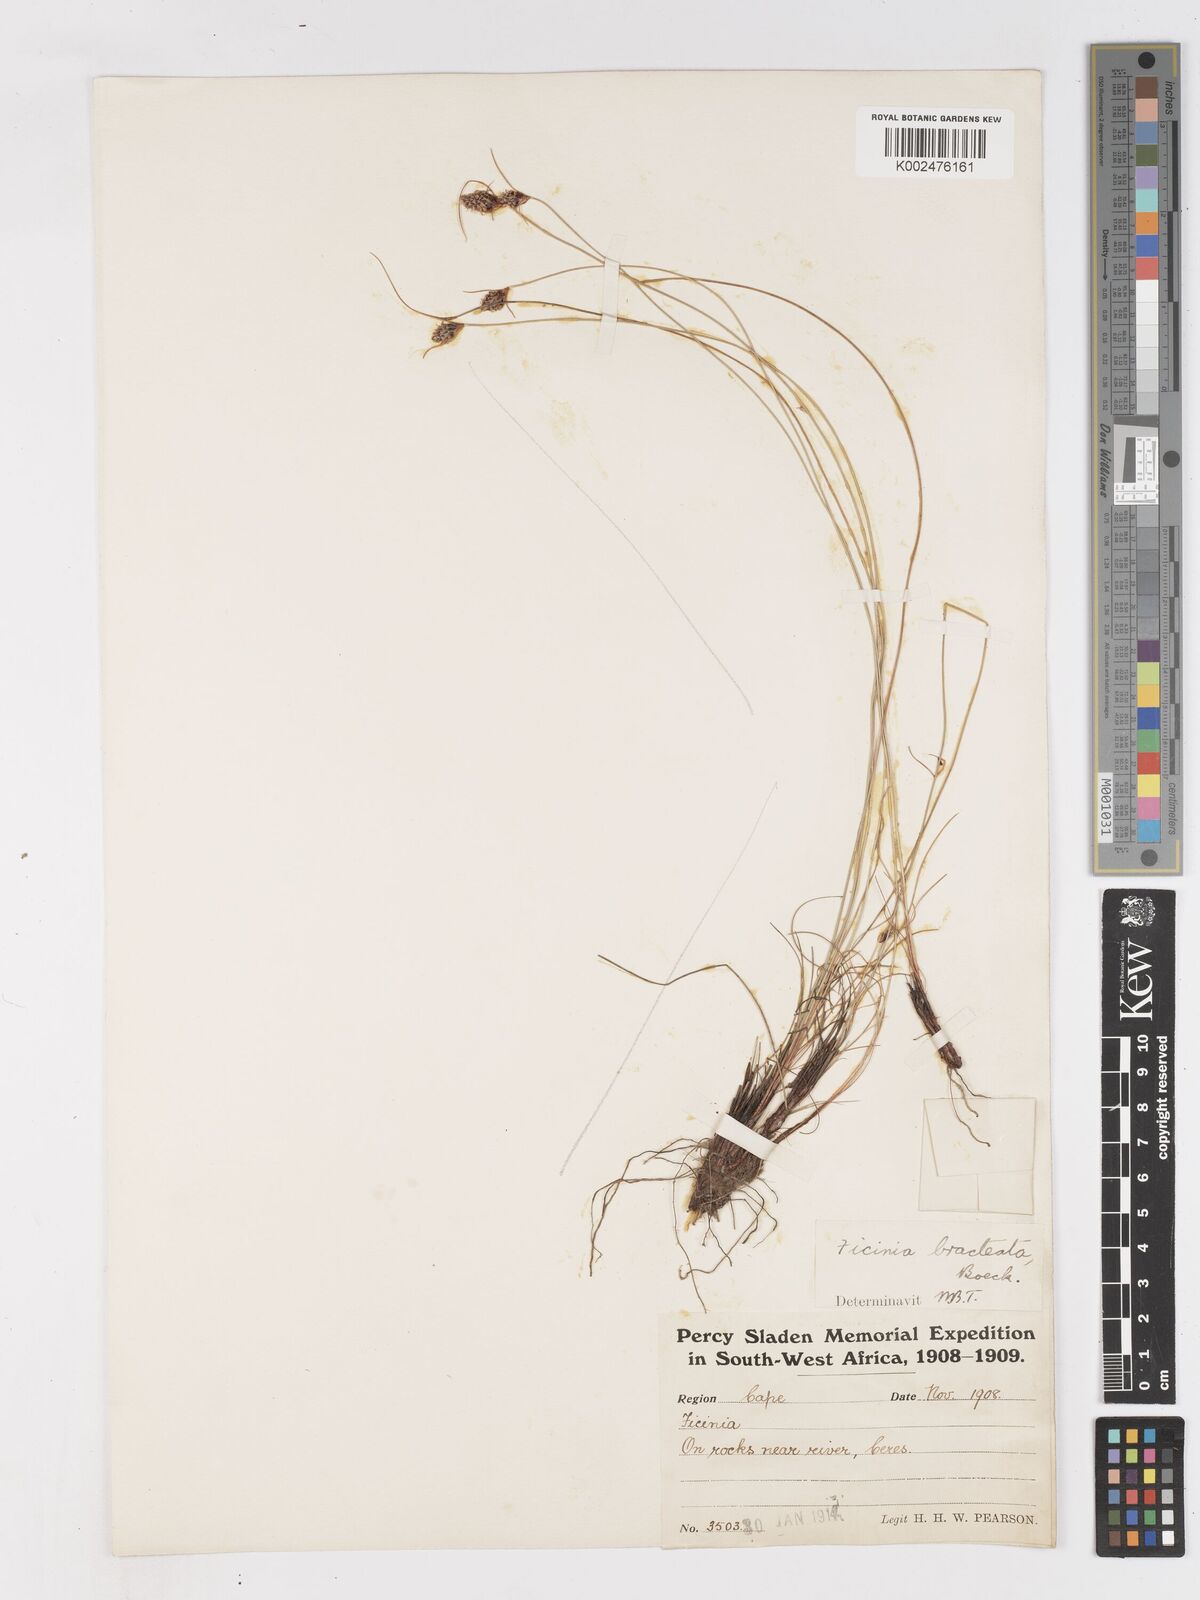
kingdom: Plantae
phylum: Tracheophyta
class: Liliopsida
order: Poales
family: Cyperaceae
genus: Ficinia
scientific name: Ficinia nigrescens
